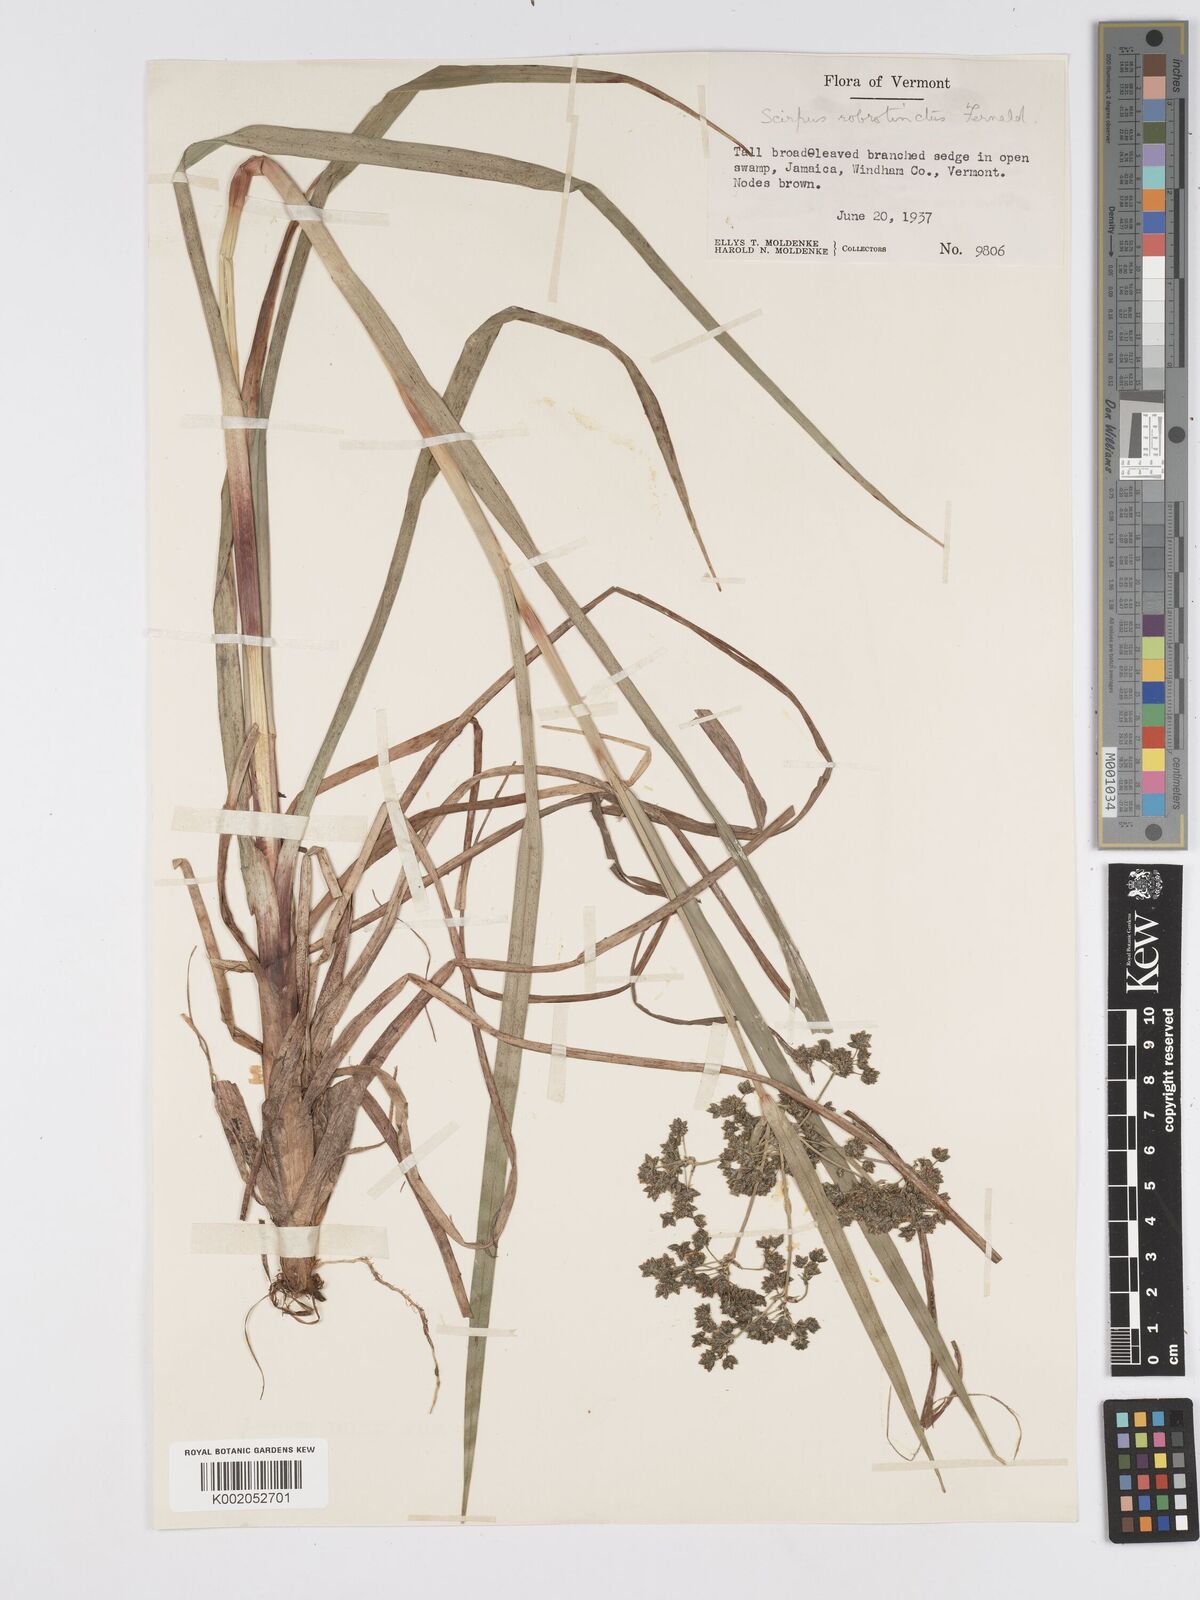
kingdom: Plantae
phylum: Tracheophyta
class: Liliopsida
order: Poales
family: Cyperaceae
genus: Scirpus
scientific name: Scirpus atrovirens
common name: Black bulrush
